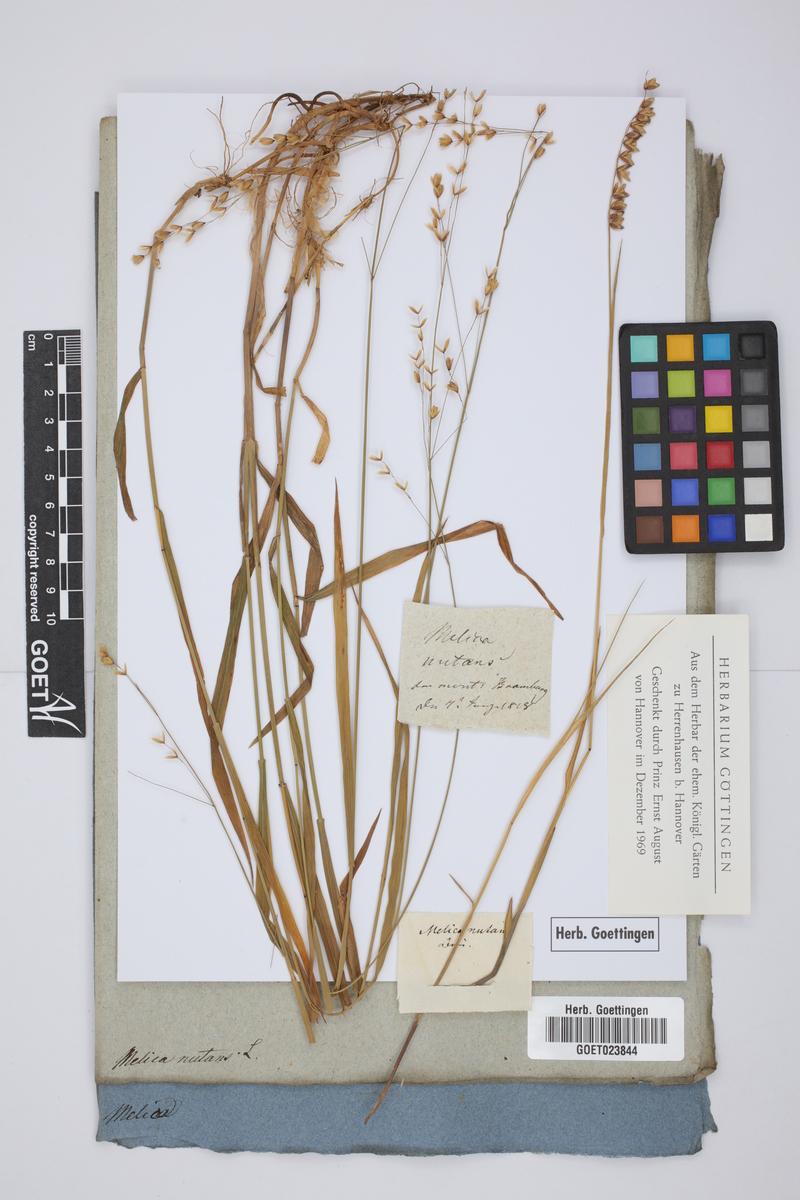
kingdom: Plantae
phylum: Tracheophyta
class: Liliopsida
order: Poales
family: Poaceae
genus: Melica
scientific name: Melica nutans
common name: Mountain melick
